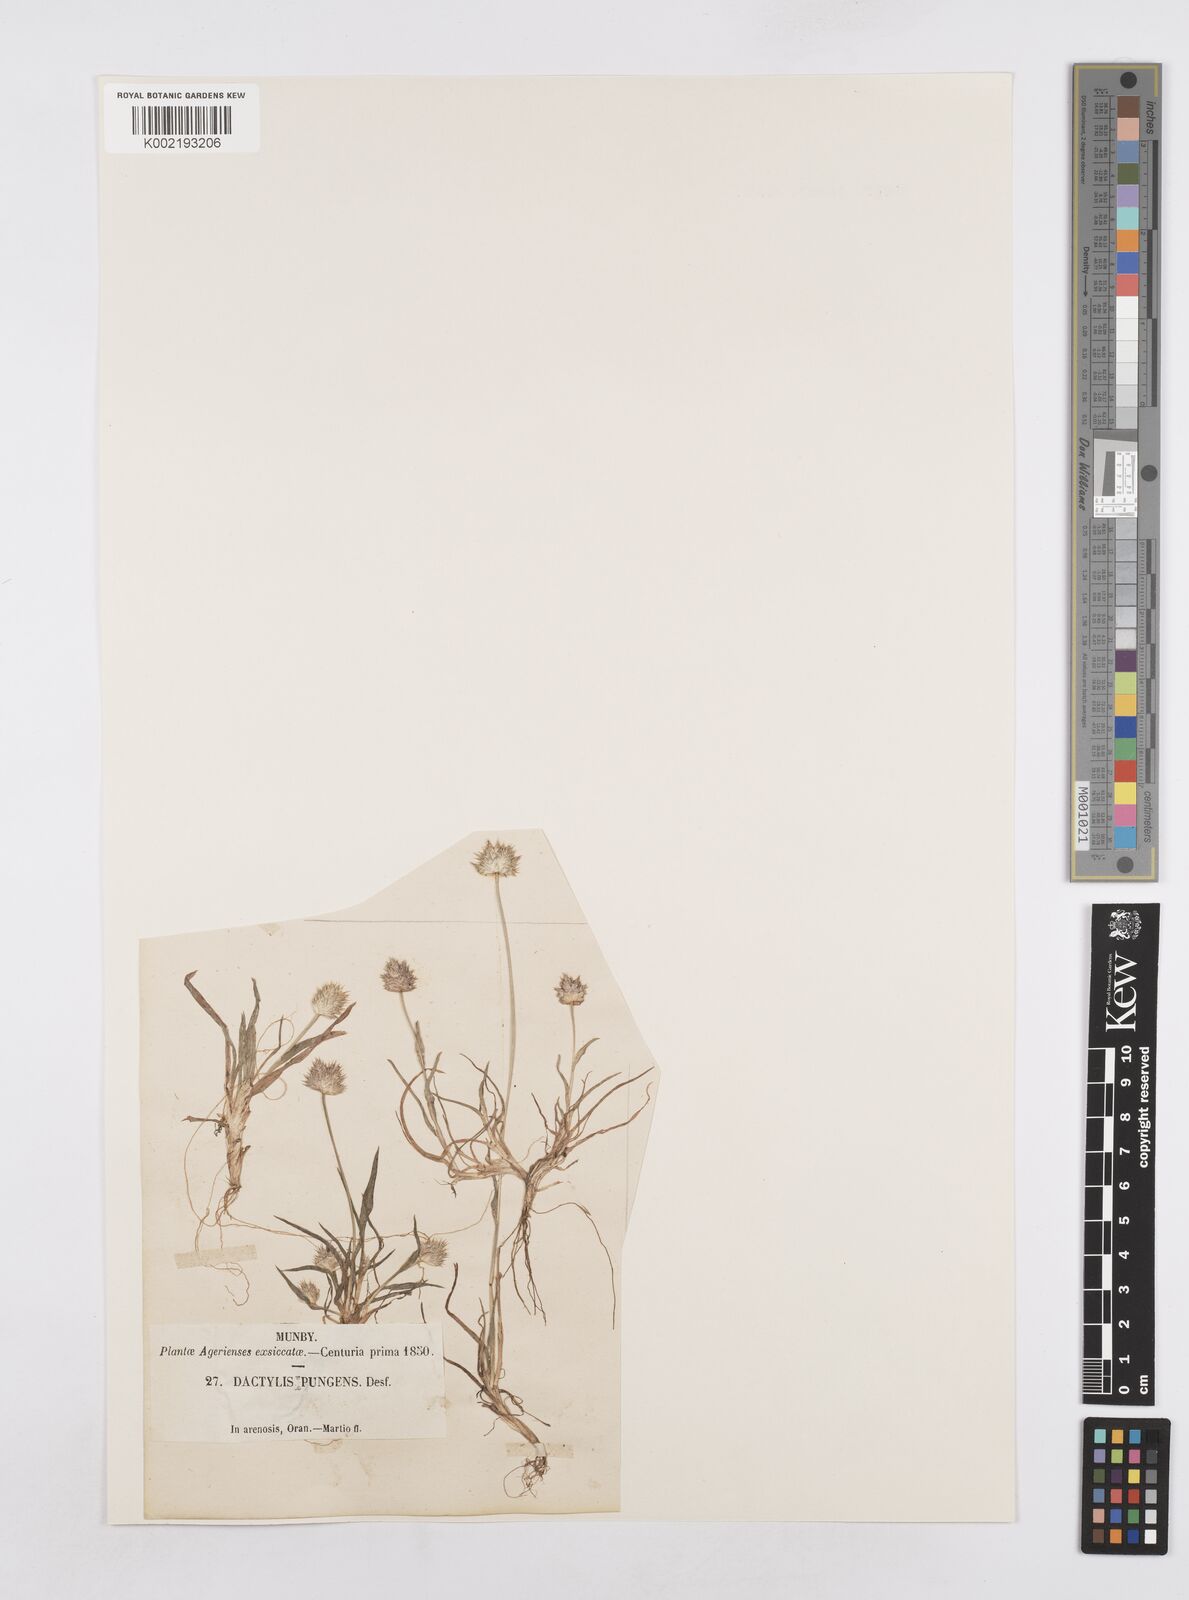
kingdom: Plantae
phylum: Tracheophyta
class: Liliopsida
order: Poales
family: Poaceae
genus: Ammochloa
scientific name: Ammochloa pungens
